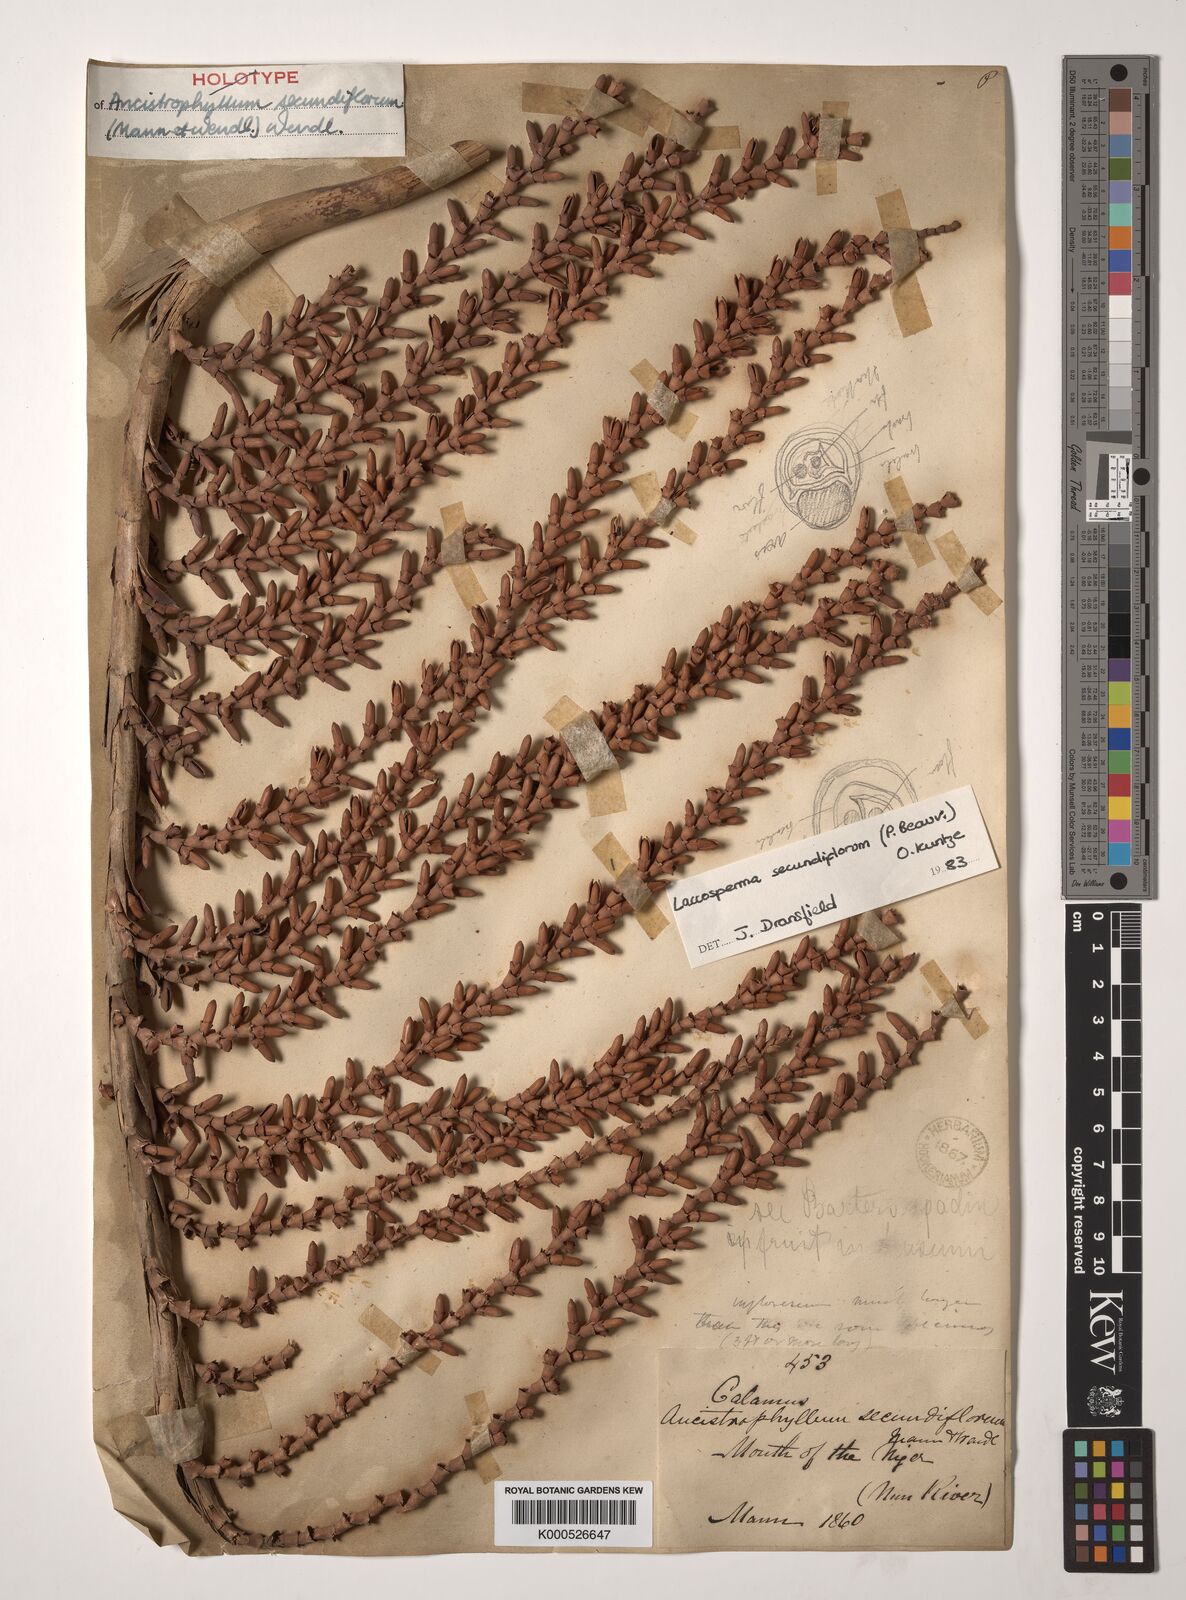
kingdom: Plantae
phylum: Tracheophyta
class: Liliopsida
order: Arecales
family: Arecaceae
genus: Laccosperma
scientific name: Laccosperma secundiflorum
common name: Rattan
